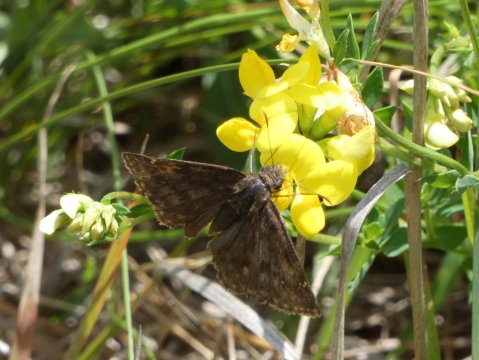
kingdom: Animalia
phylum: Arthropoda
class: Insecta
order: Lepidoptera
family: Hesperiidae
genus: Gesta
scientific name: Gesta
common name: Juvenal's Duskywing
